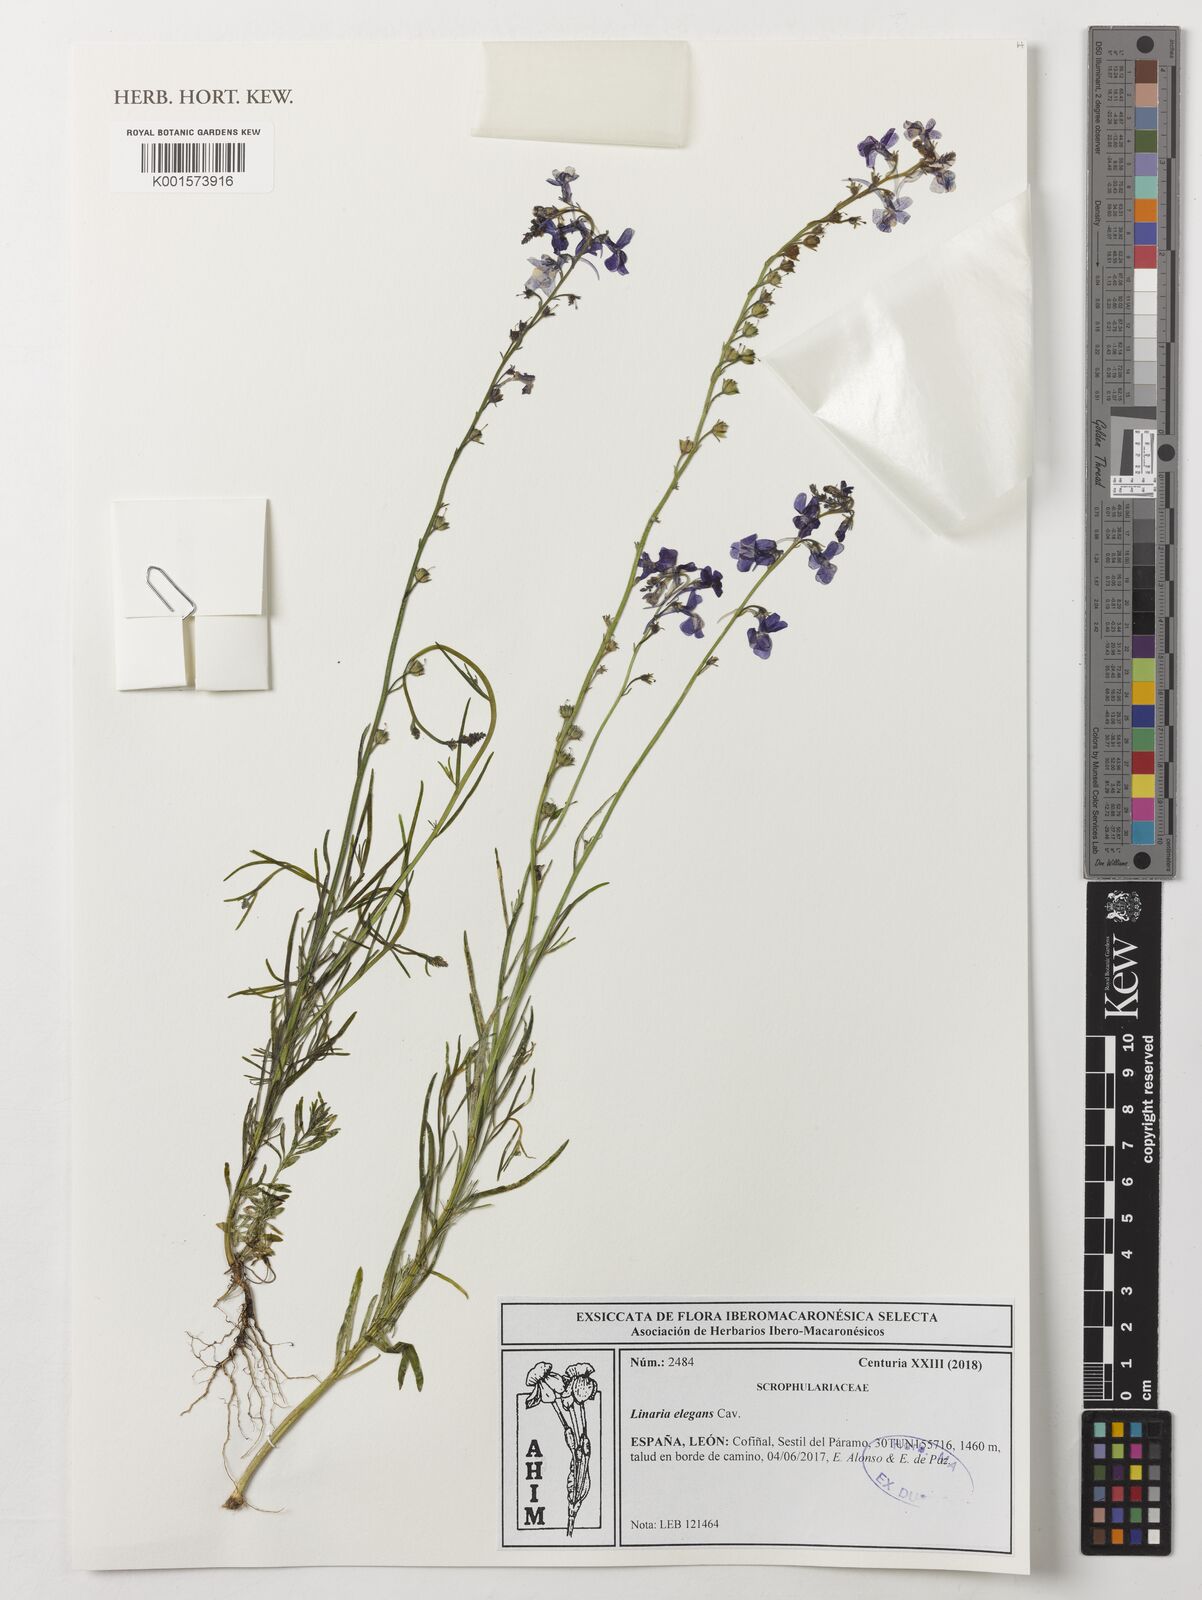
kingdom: Plantae
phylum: Tracheophyta
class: Magnoliopsida
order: Lamiales
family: Plantaginaceae
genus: Linaria
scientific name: Linaria elegans
